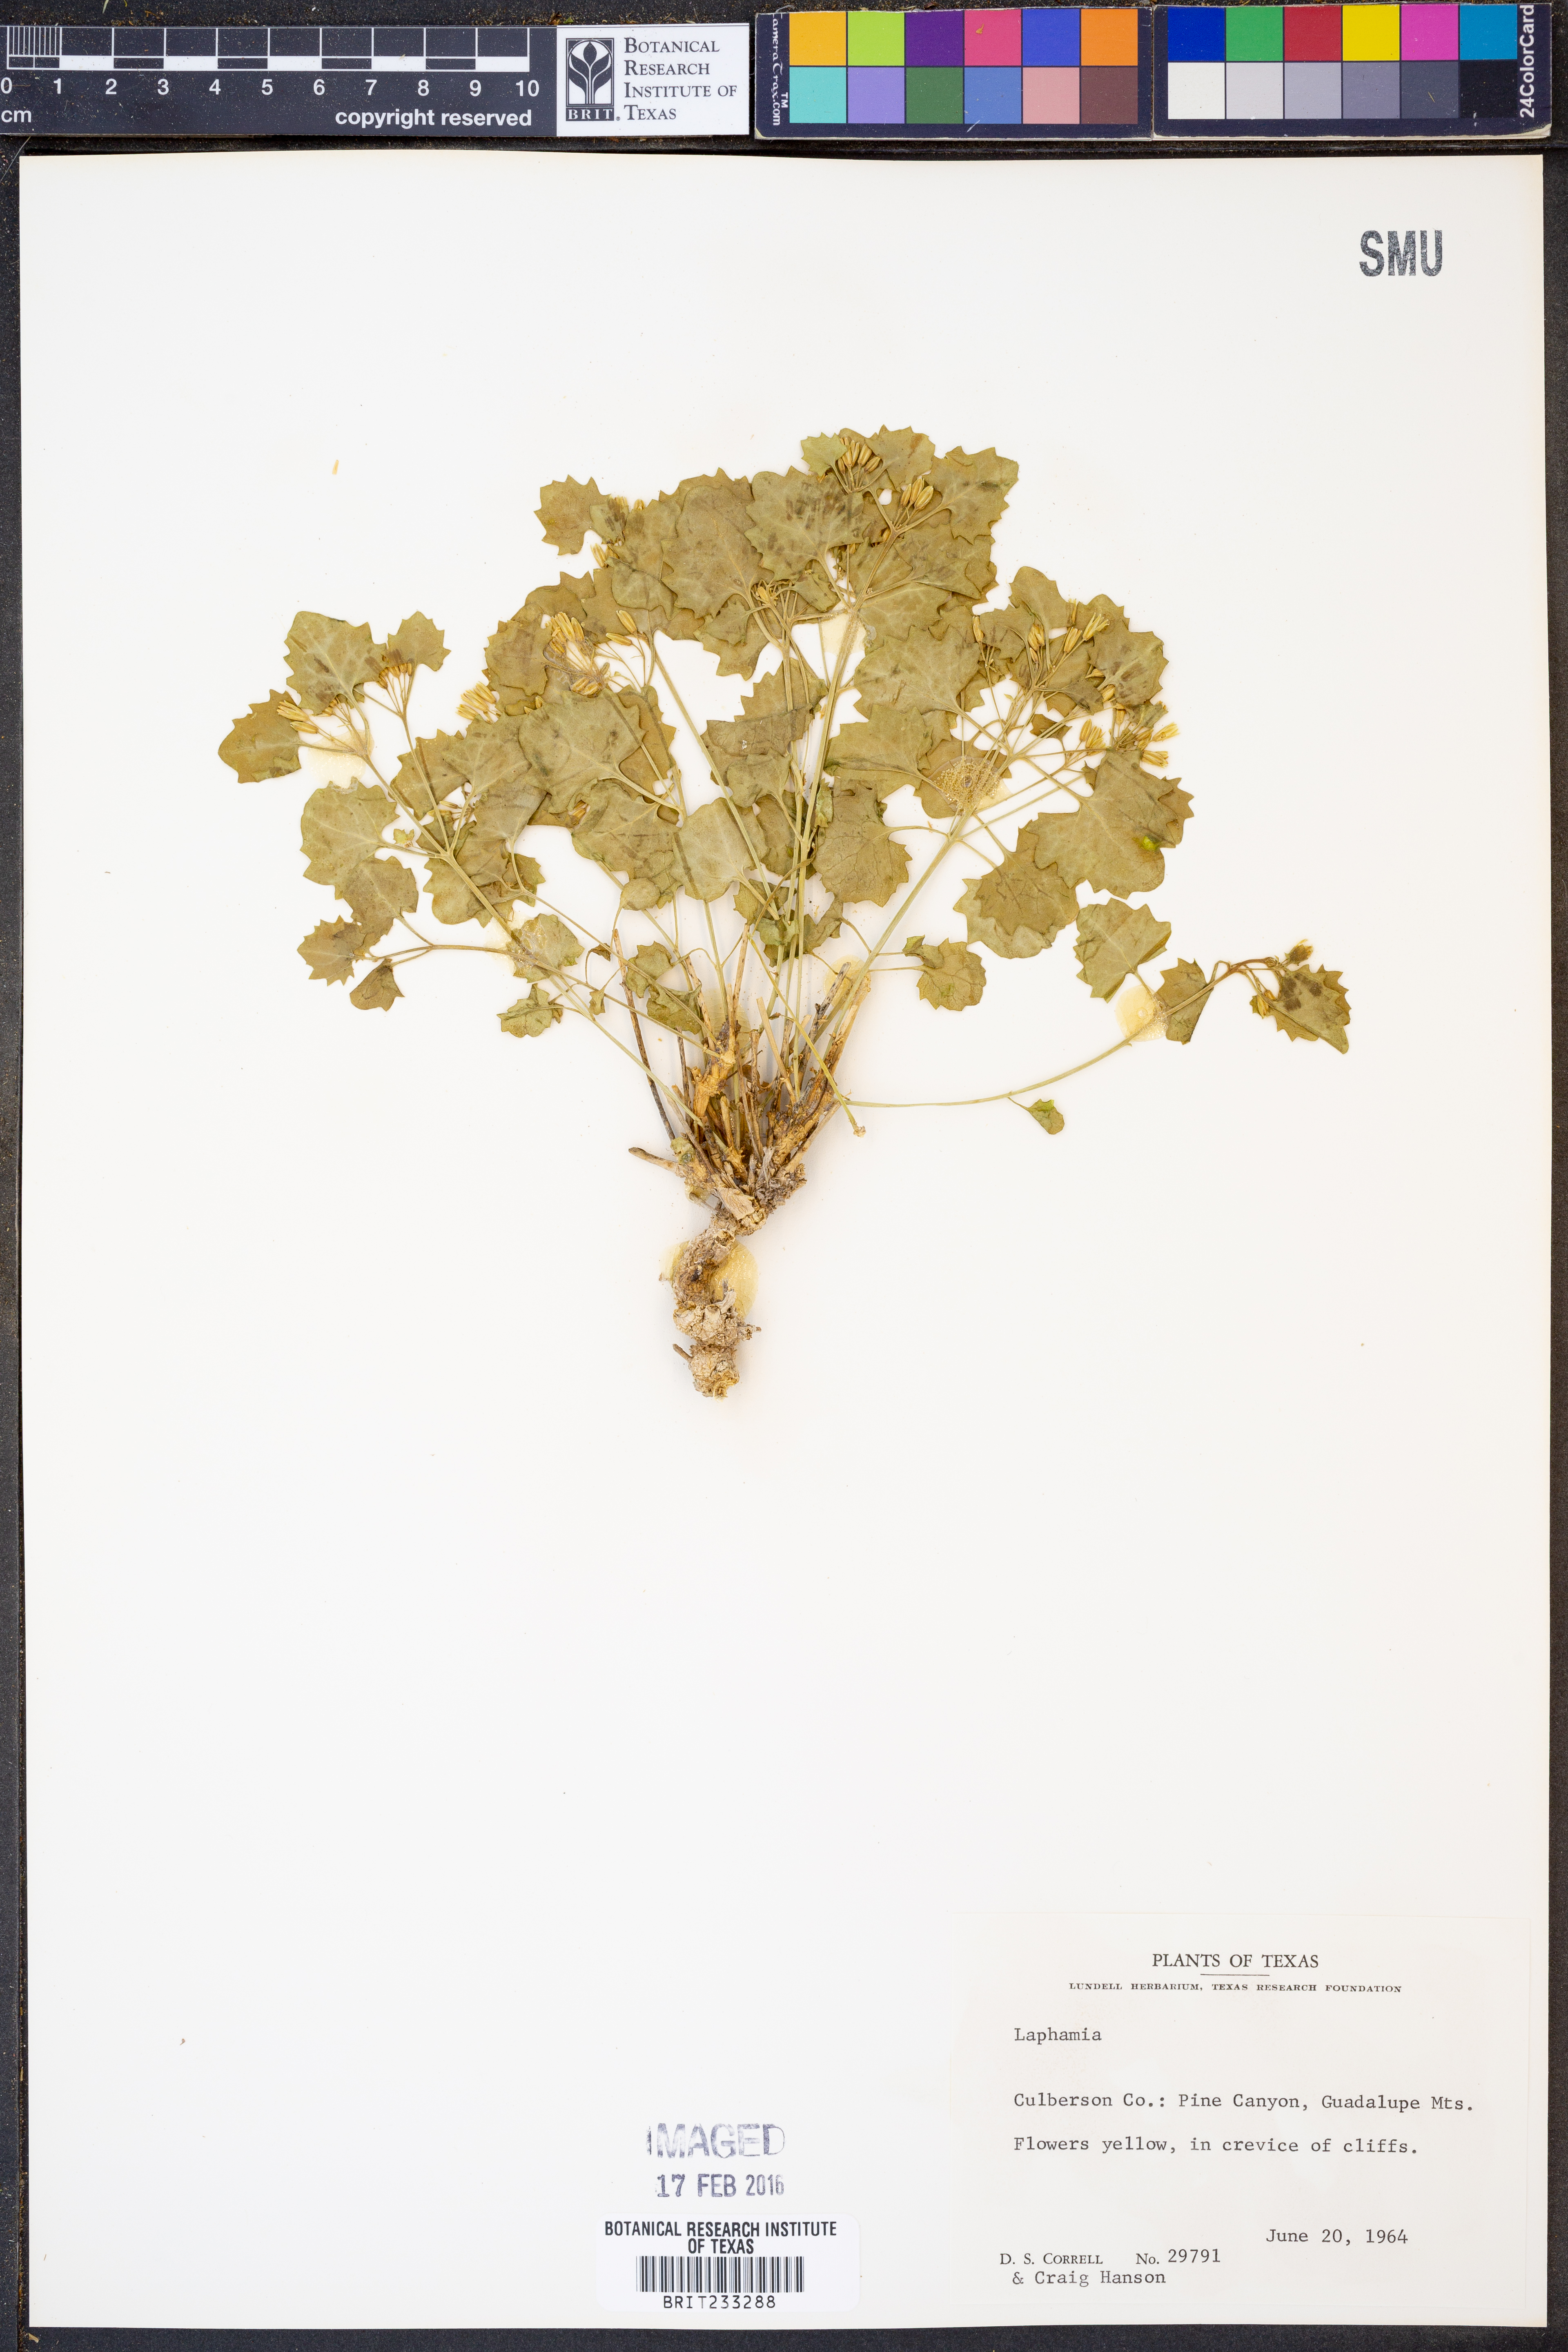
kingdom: Plantae
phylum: Tracheophyta
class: Magnoliopsida
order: Asterales
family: Asteraceae
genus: Laphamia
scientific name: Laphamia
